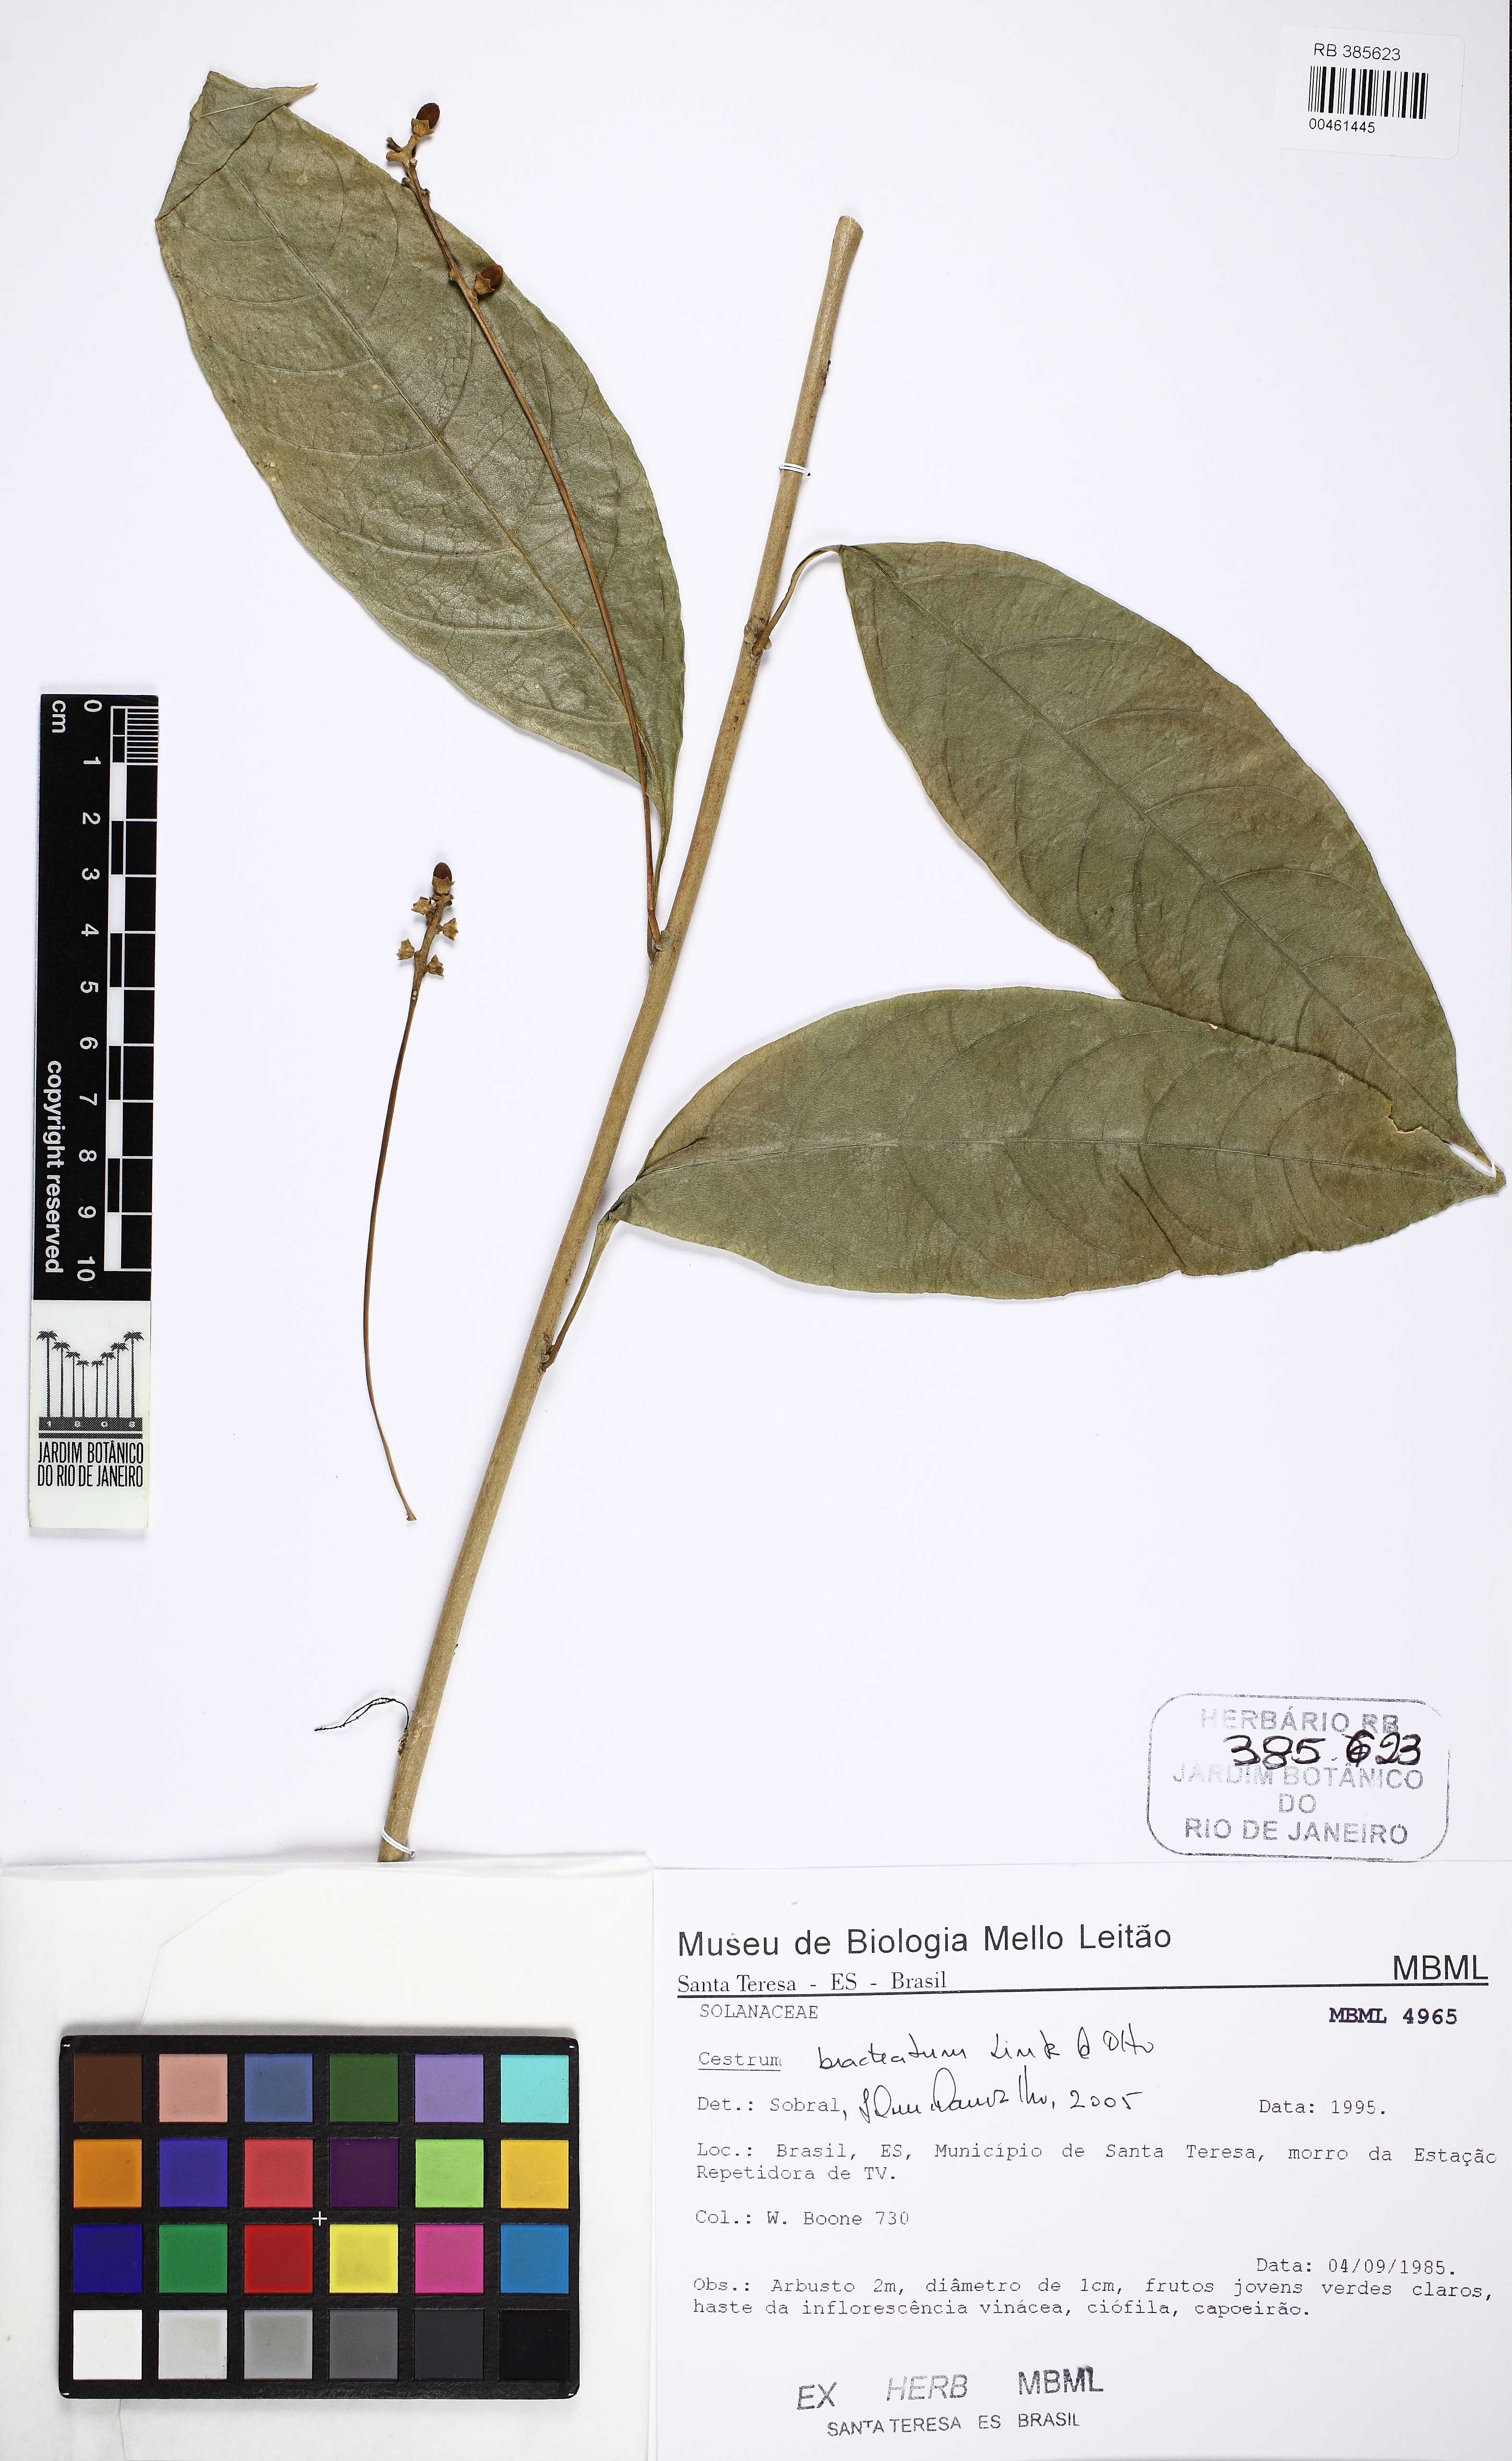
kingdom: Plantae
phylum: Tracheophyta
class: Magnoliopsida
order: Solanales
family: Solanaceae
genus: Cestrum
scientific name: Cestrum bracteatum
